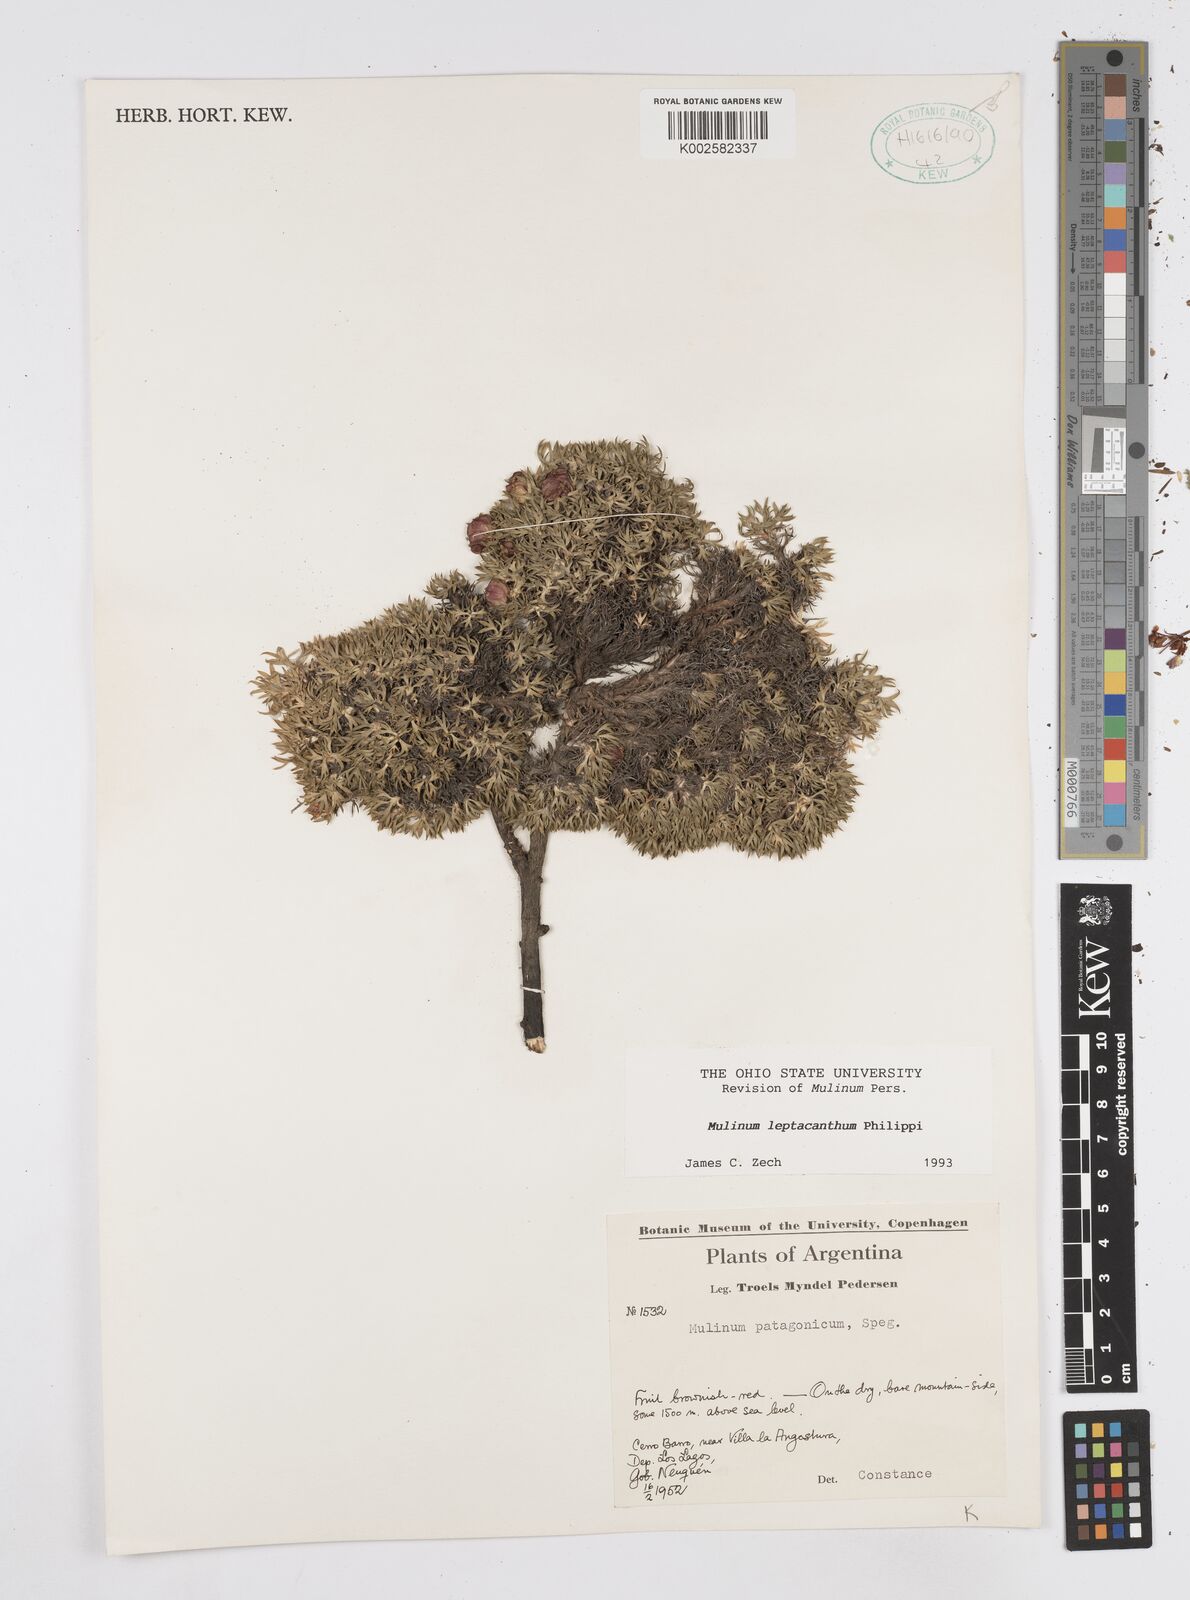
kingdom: Plantae
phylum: Tracheophyta
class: Magnoliopsida
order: Apiales
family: Apiaceae
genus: Azorella
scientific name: Azorella nivalis
